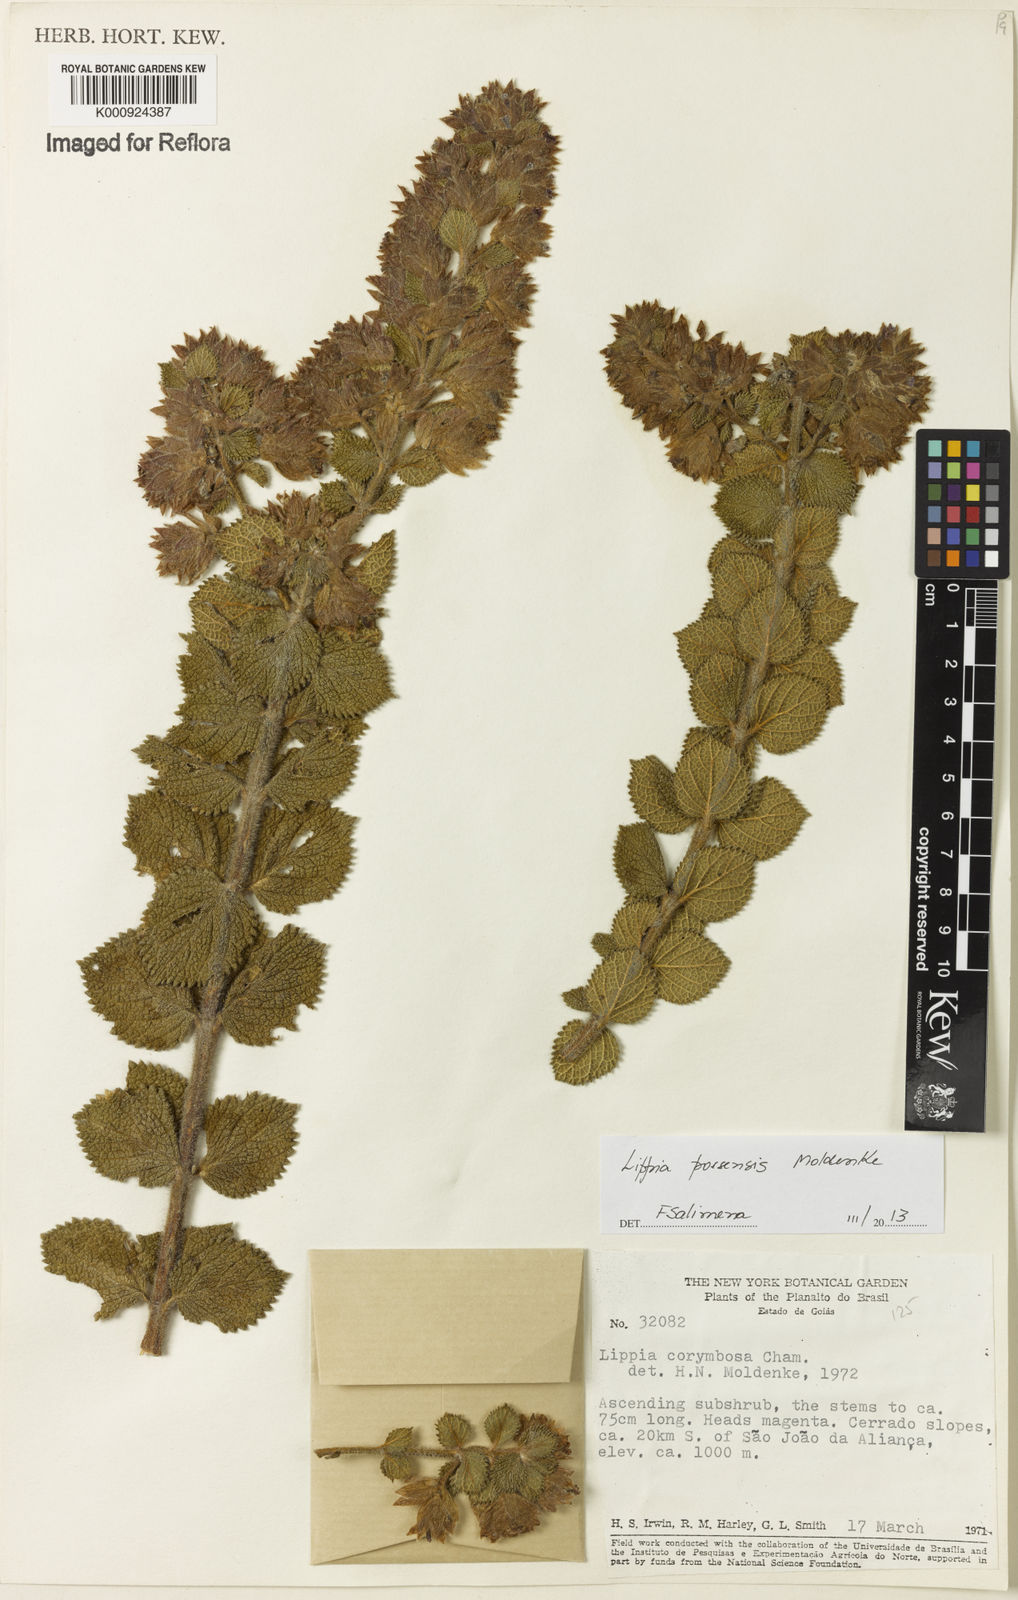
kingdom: Plantae
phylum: Tracheophyta
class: Magnoliopsida
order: Lamiales
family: Verbenaceae
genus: Lippia
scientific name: Lippia possensis
